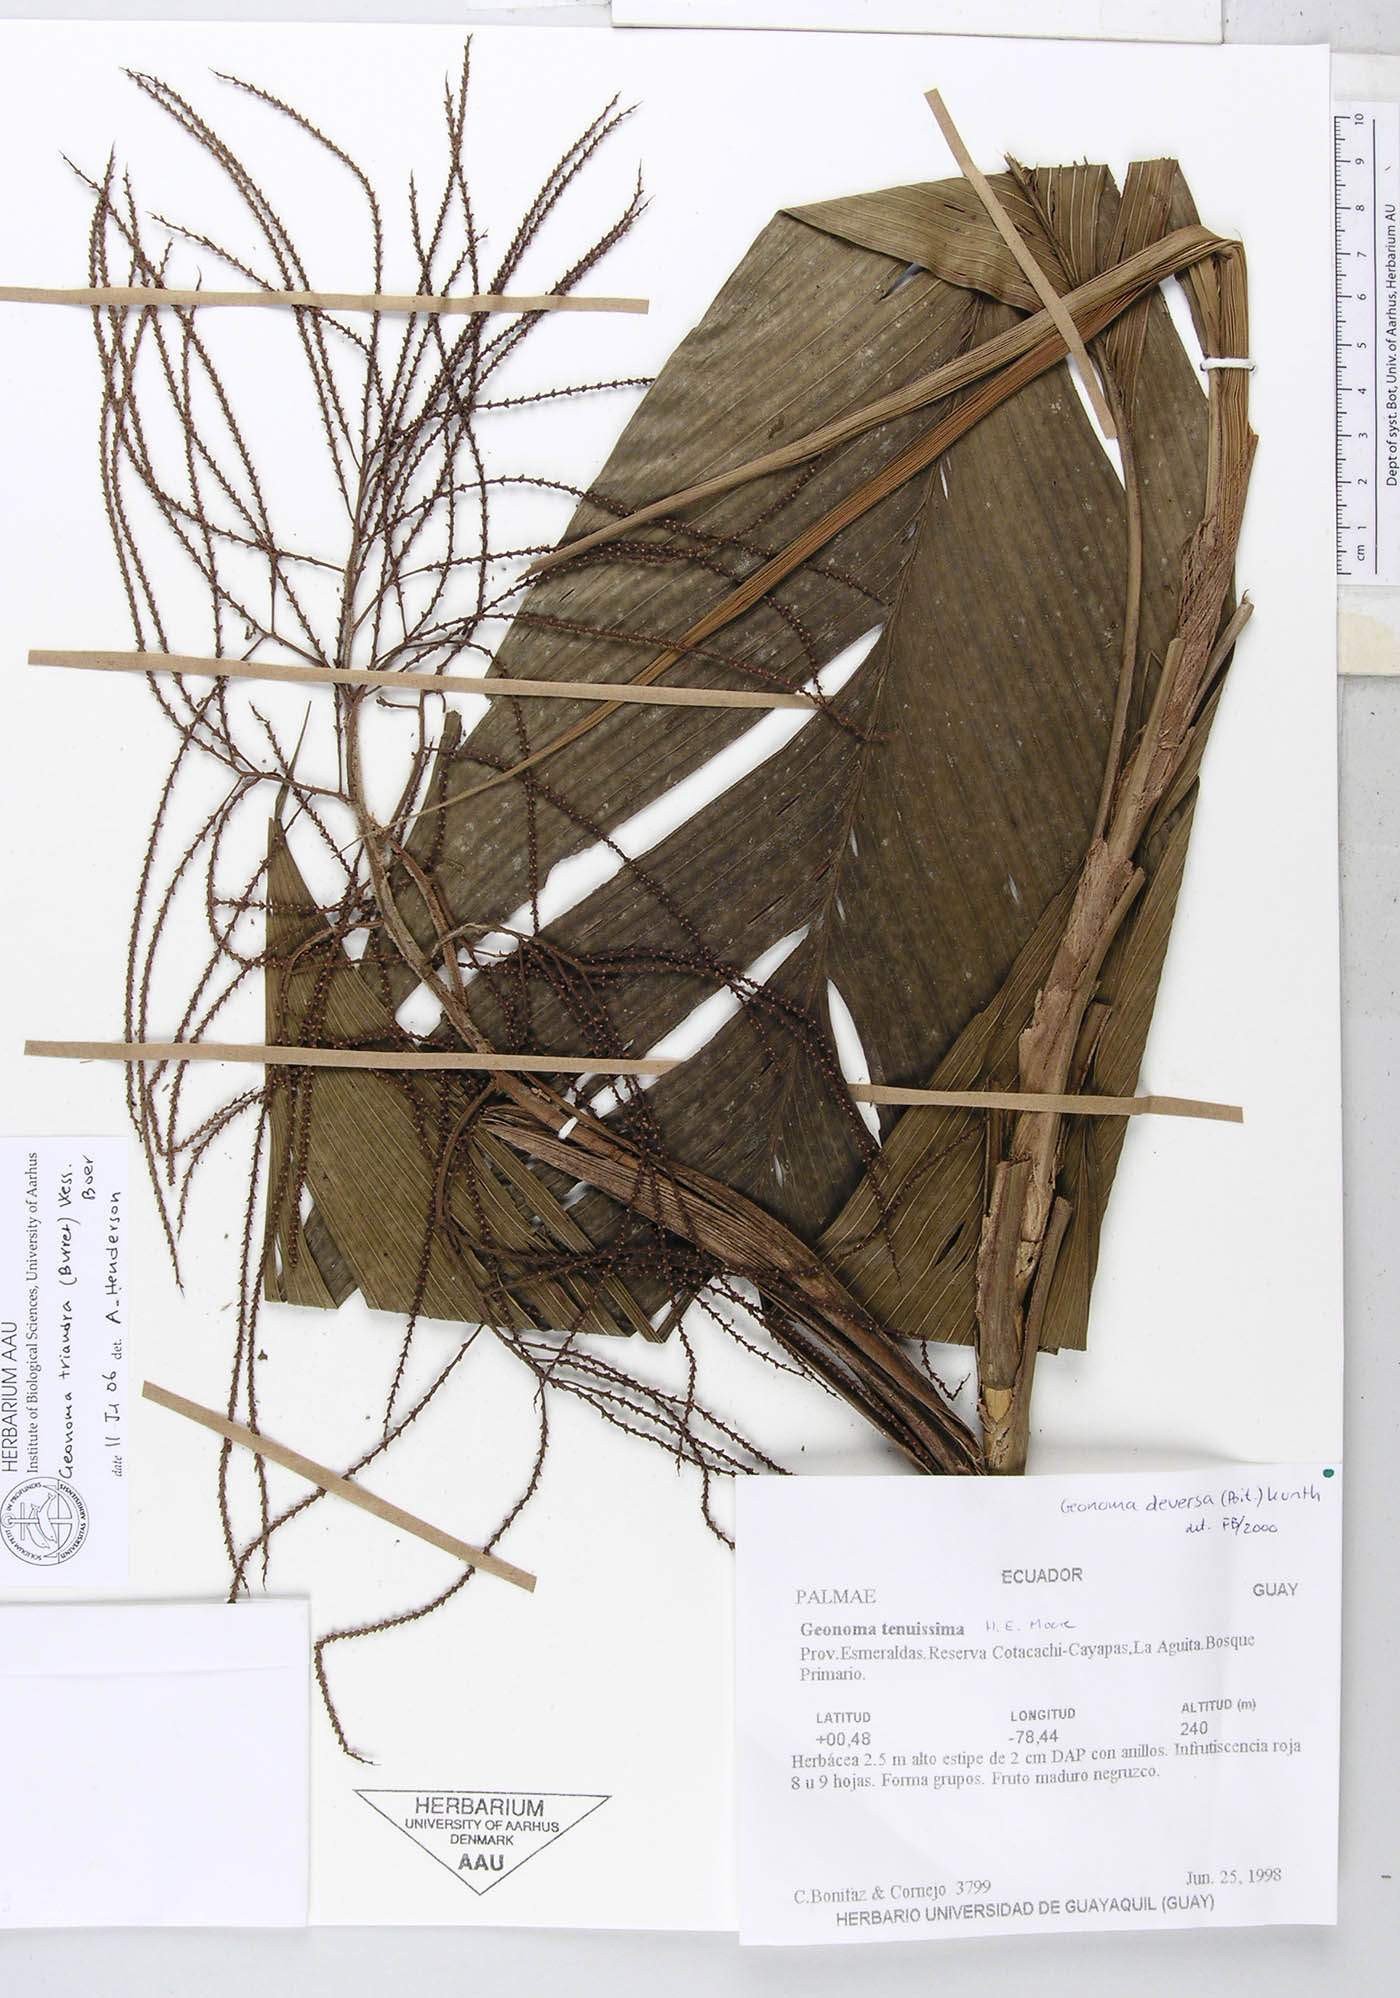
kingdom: Plantae
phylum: Tracheophyta
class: Liliopsida
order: Arecales
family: Arecaceae
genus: Geonoma
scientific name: Geonoma triandra
